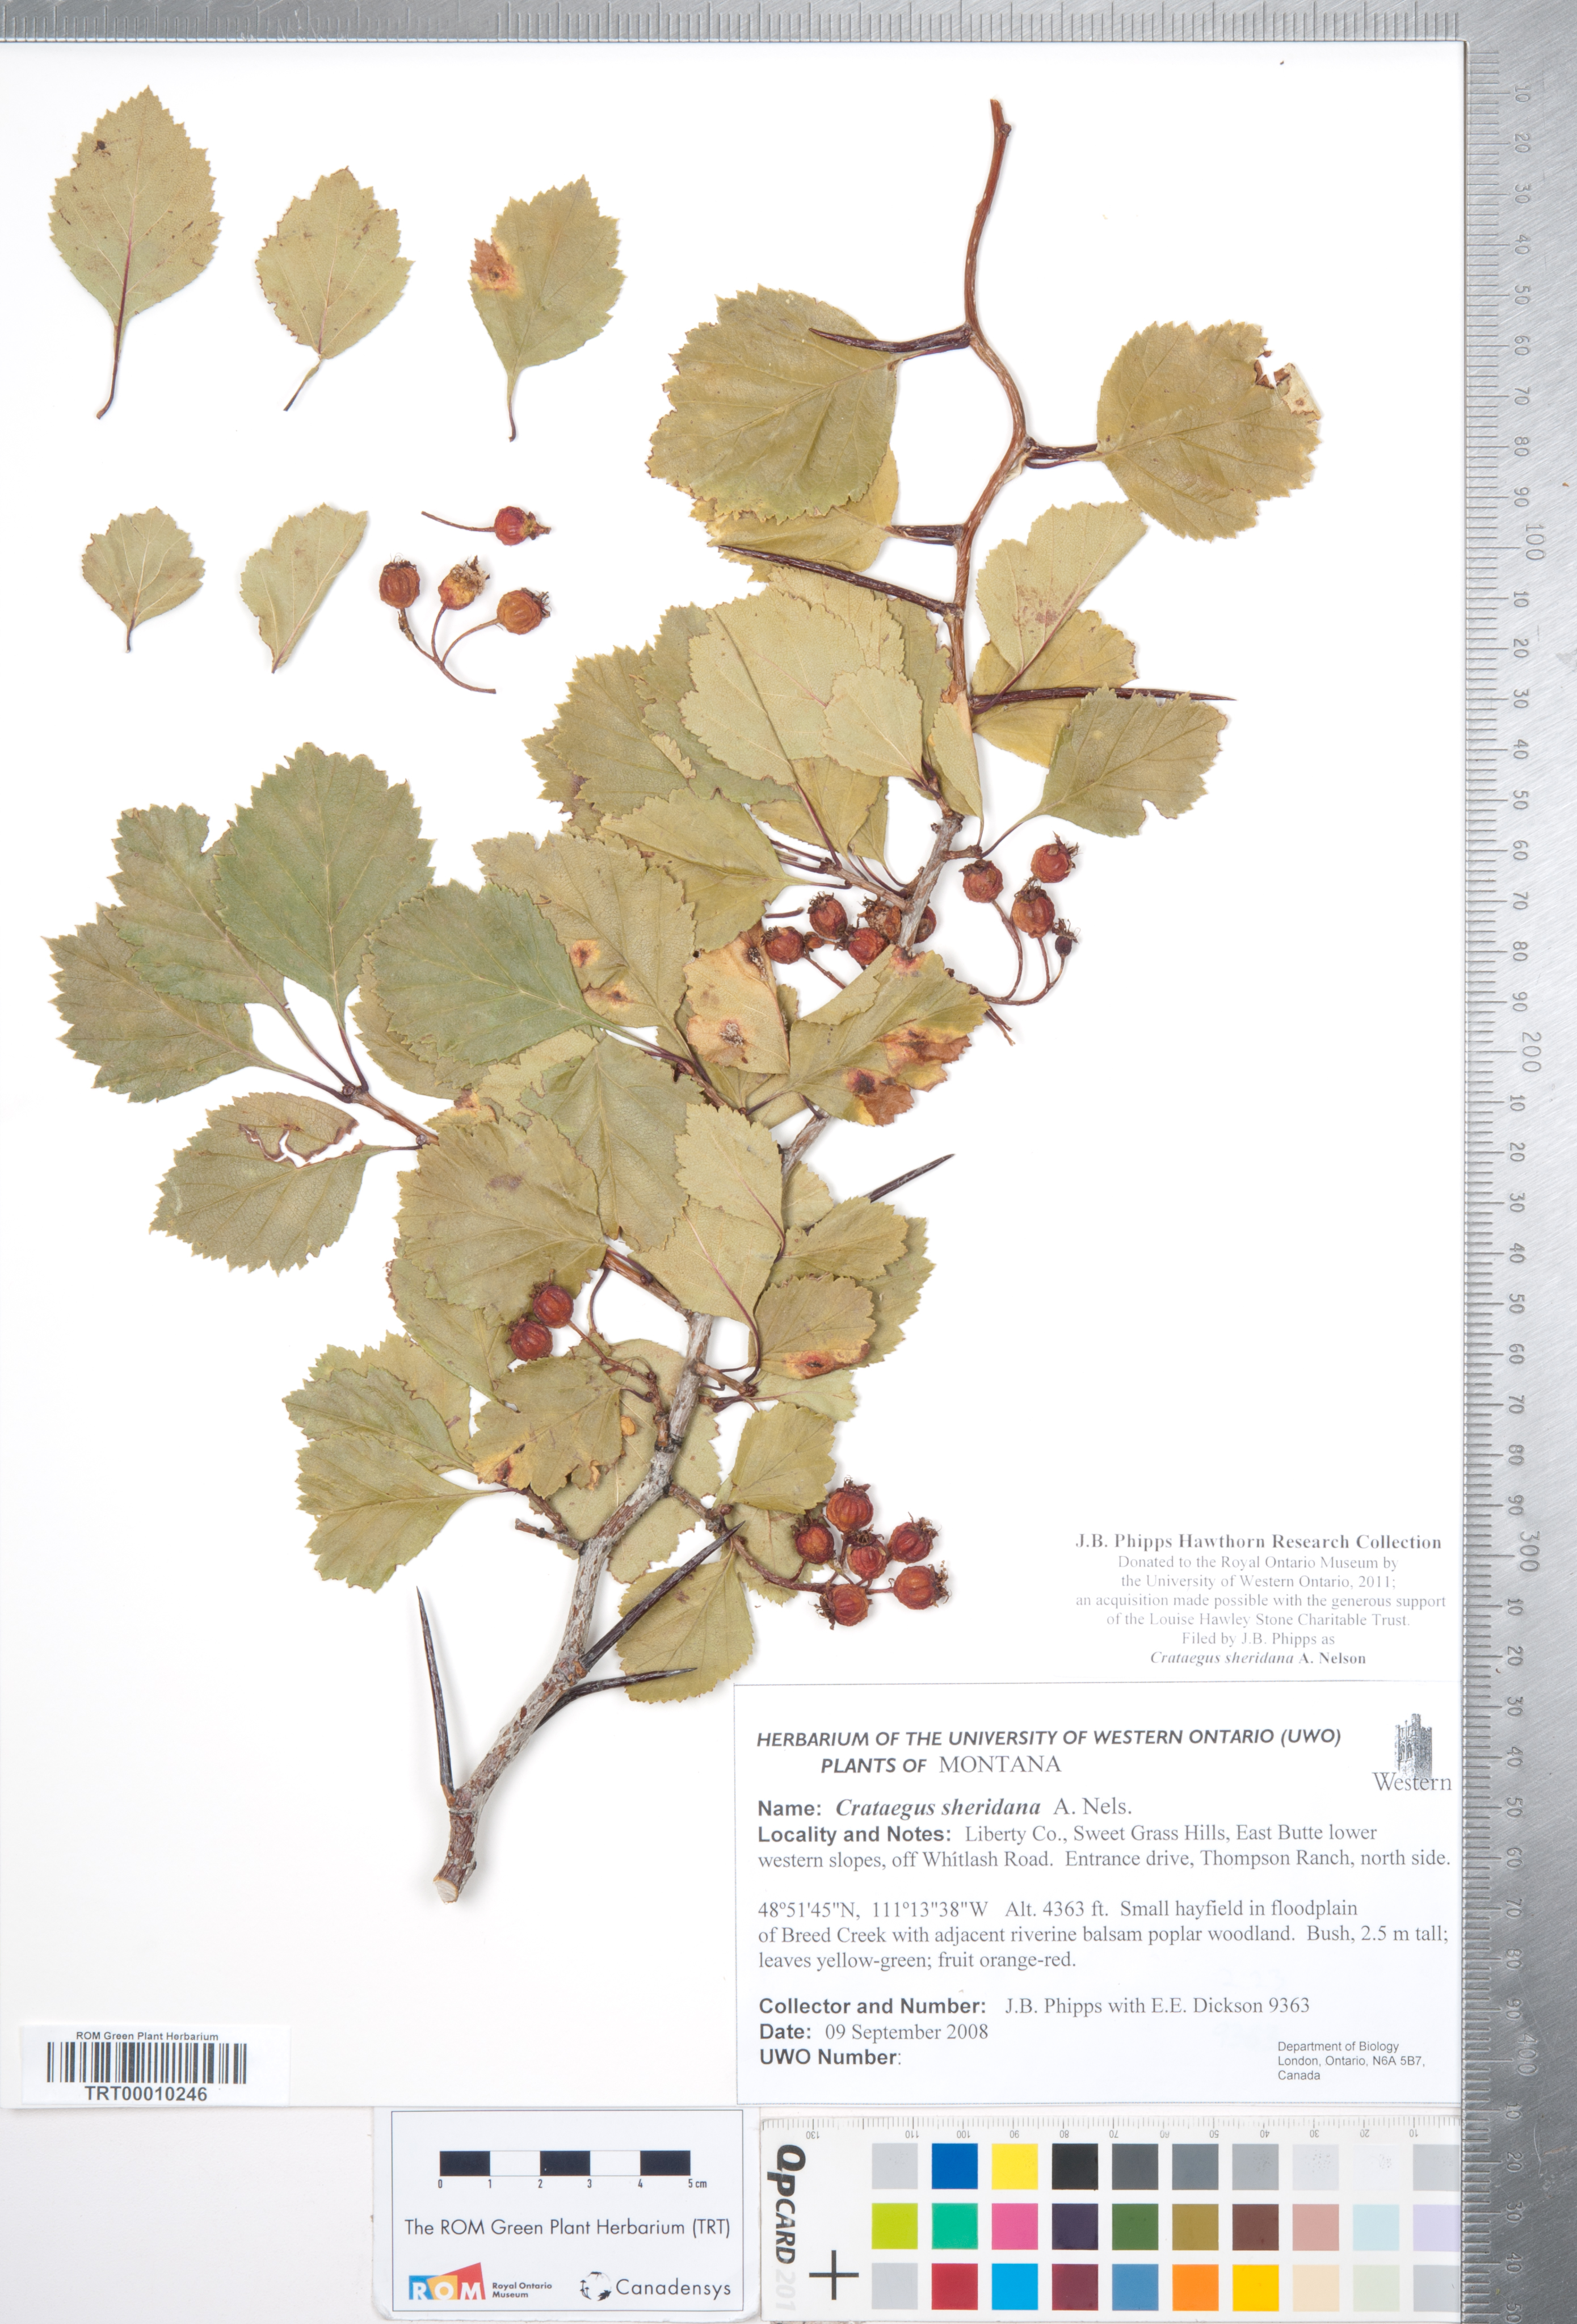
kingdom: Plantae
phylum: Tracheophyta
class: Magnoliopsida
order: Rosales
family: Rosaceae
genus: Crataegus
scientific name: Crataegus chrysocarpa
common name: Fire-berry hawthorn
